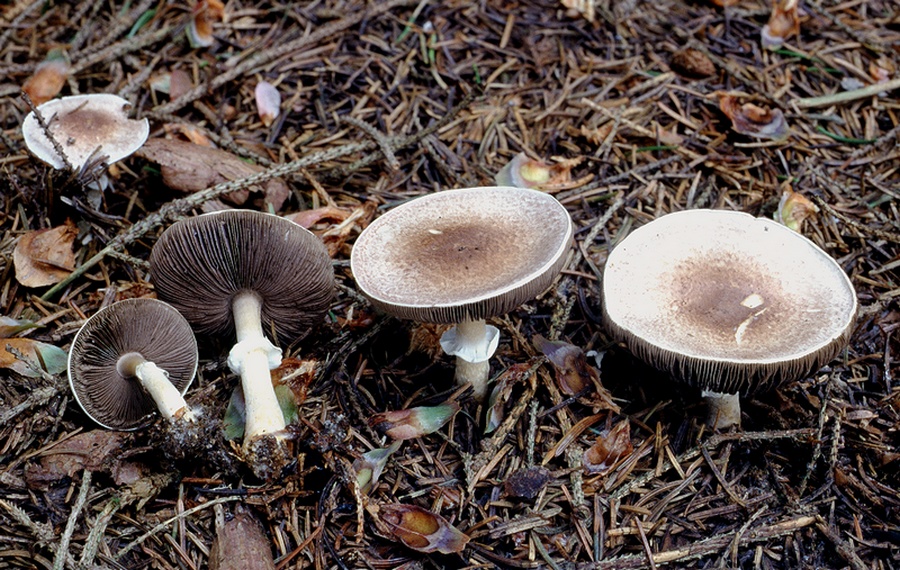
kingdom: Fungi
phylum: Basidiomycota
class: Agaricomycetes
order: Agaricales
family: Agaricaceae
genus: Agaricus
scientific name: Agaricus dulcidulus
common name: blegrød champignon
